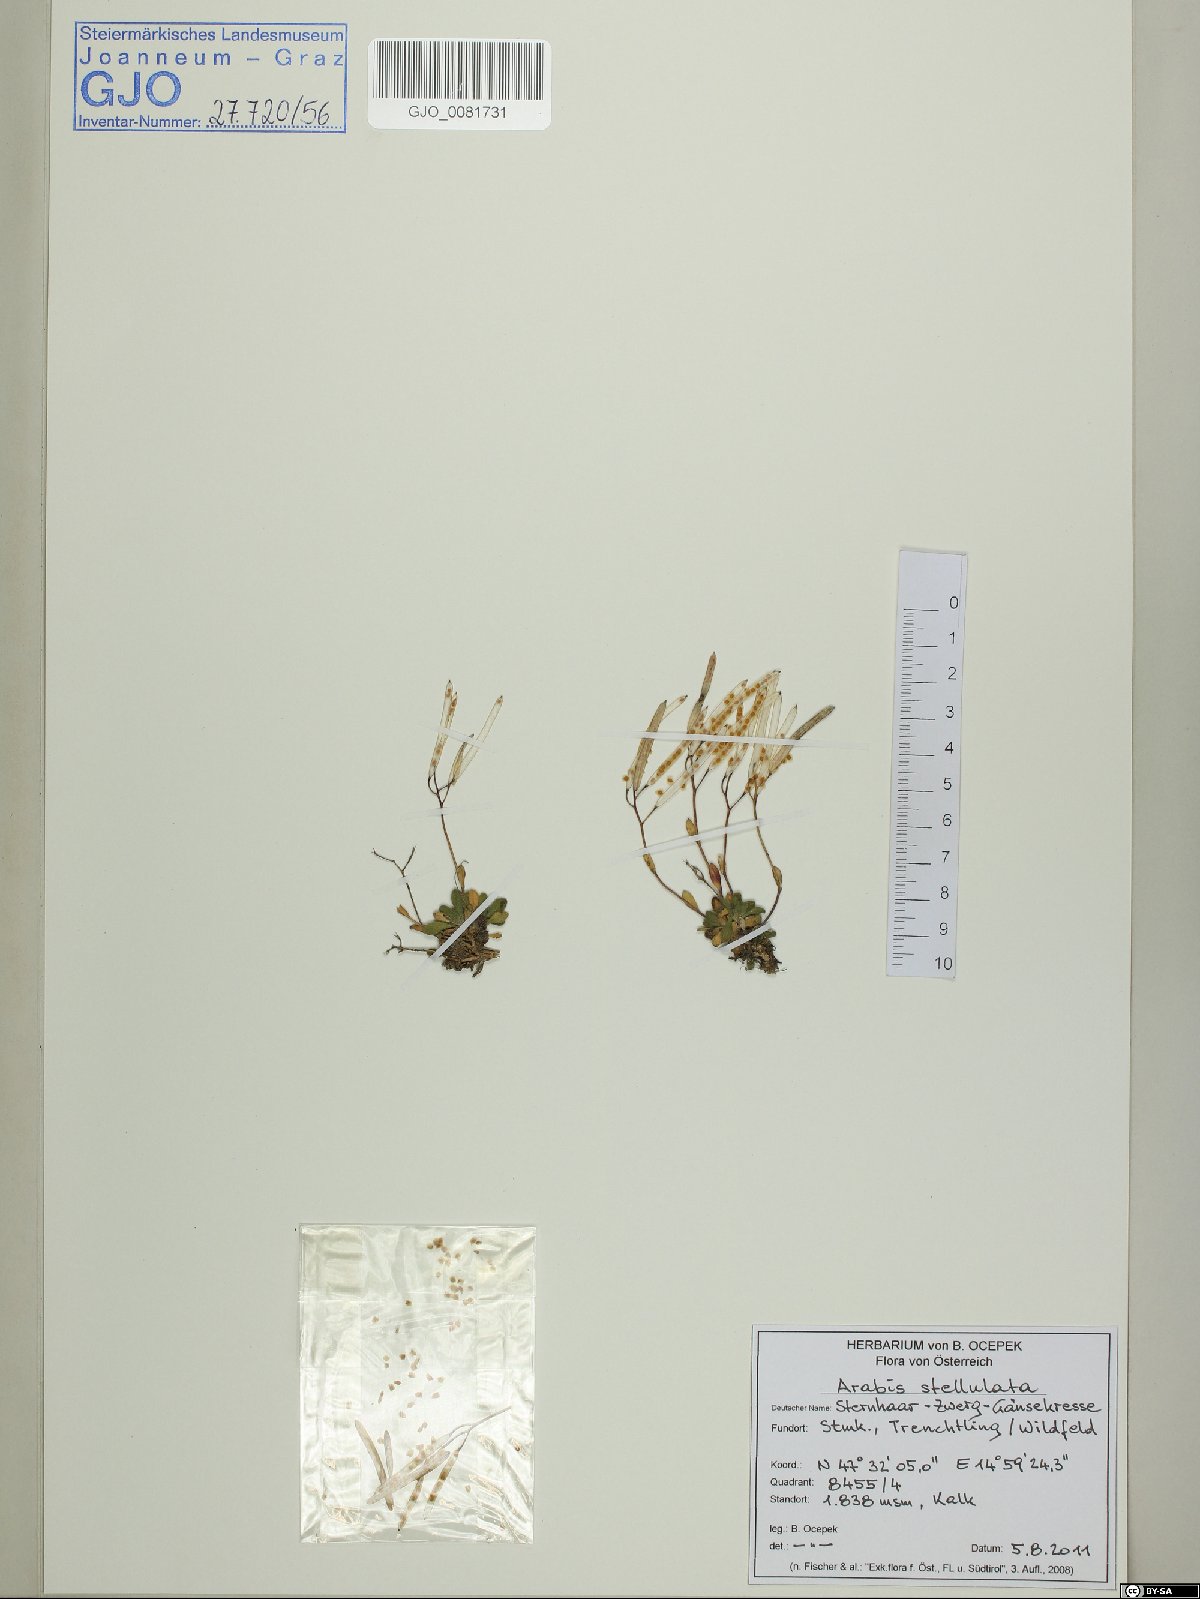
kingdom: Plantae
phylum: Tracheophyta
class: Magnoliopsida
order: Brassicales
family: Brassicaceae
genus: Arabis
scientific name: Arabis stellulata
